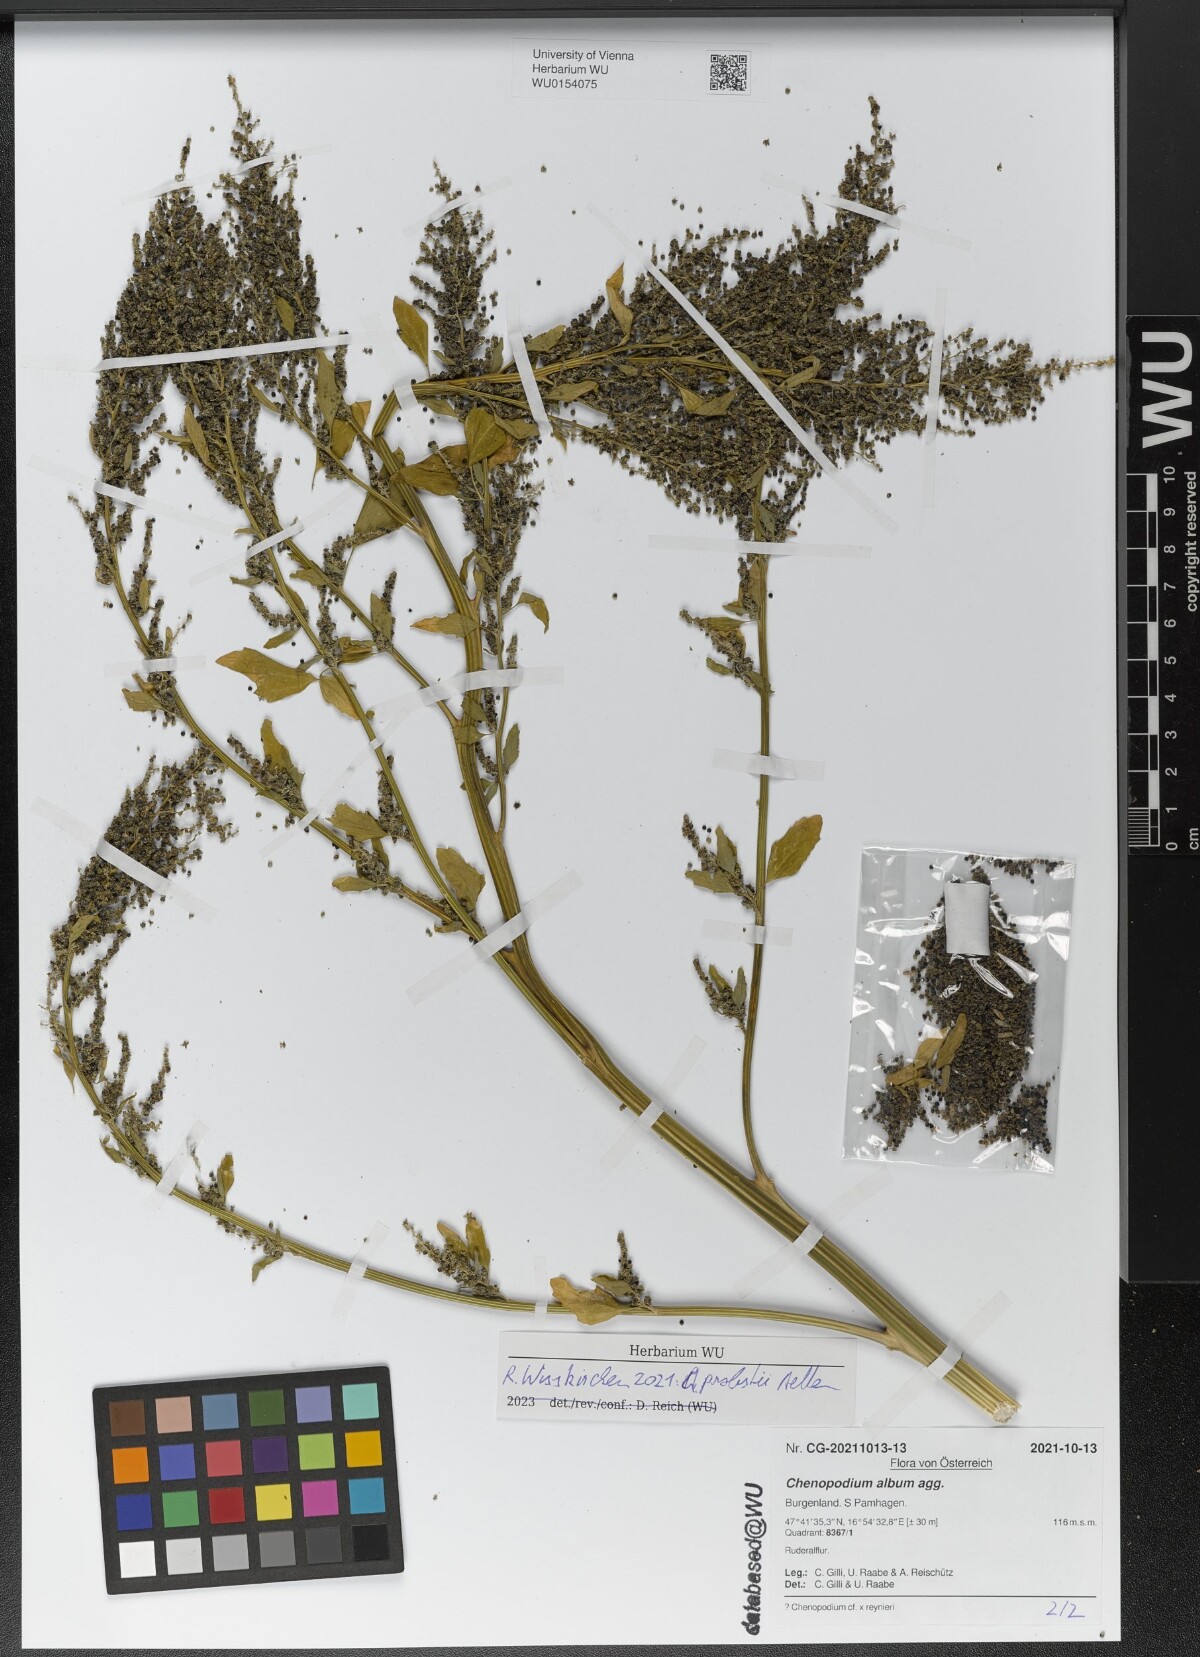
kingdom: Plantae
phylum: Tracheophyta
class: Magnoliopsida
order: Caryophyllales
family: Amaranthaceae
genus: Chenopodium
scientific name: Chenopodium probstii
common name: Probst's goosefoot
